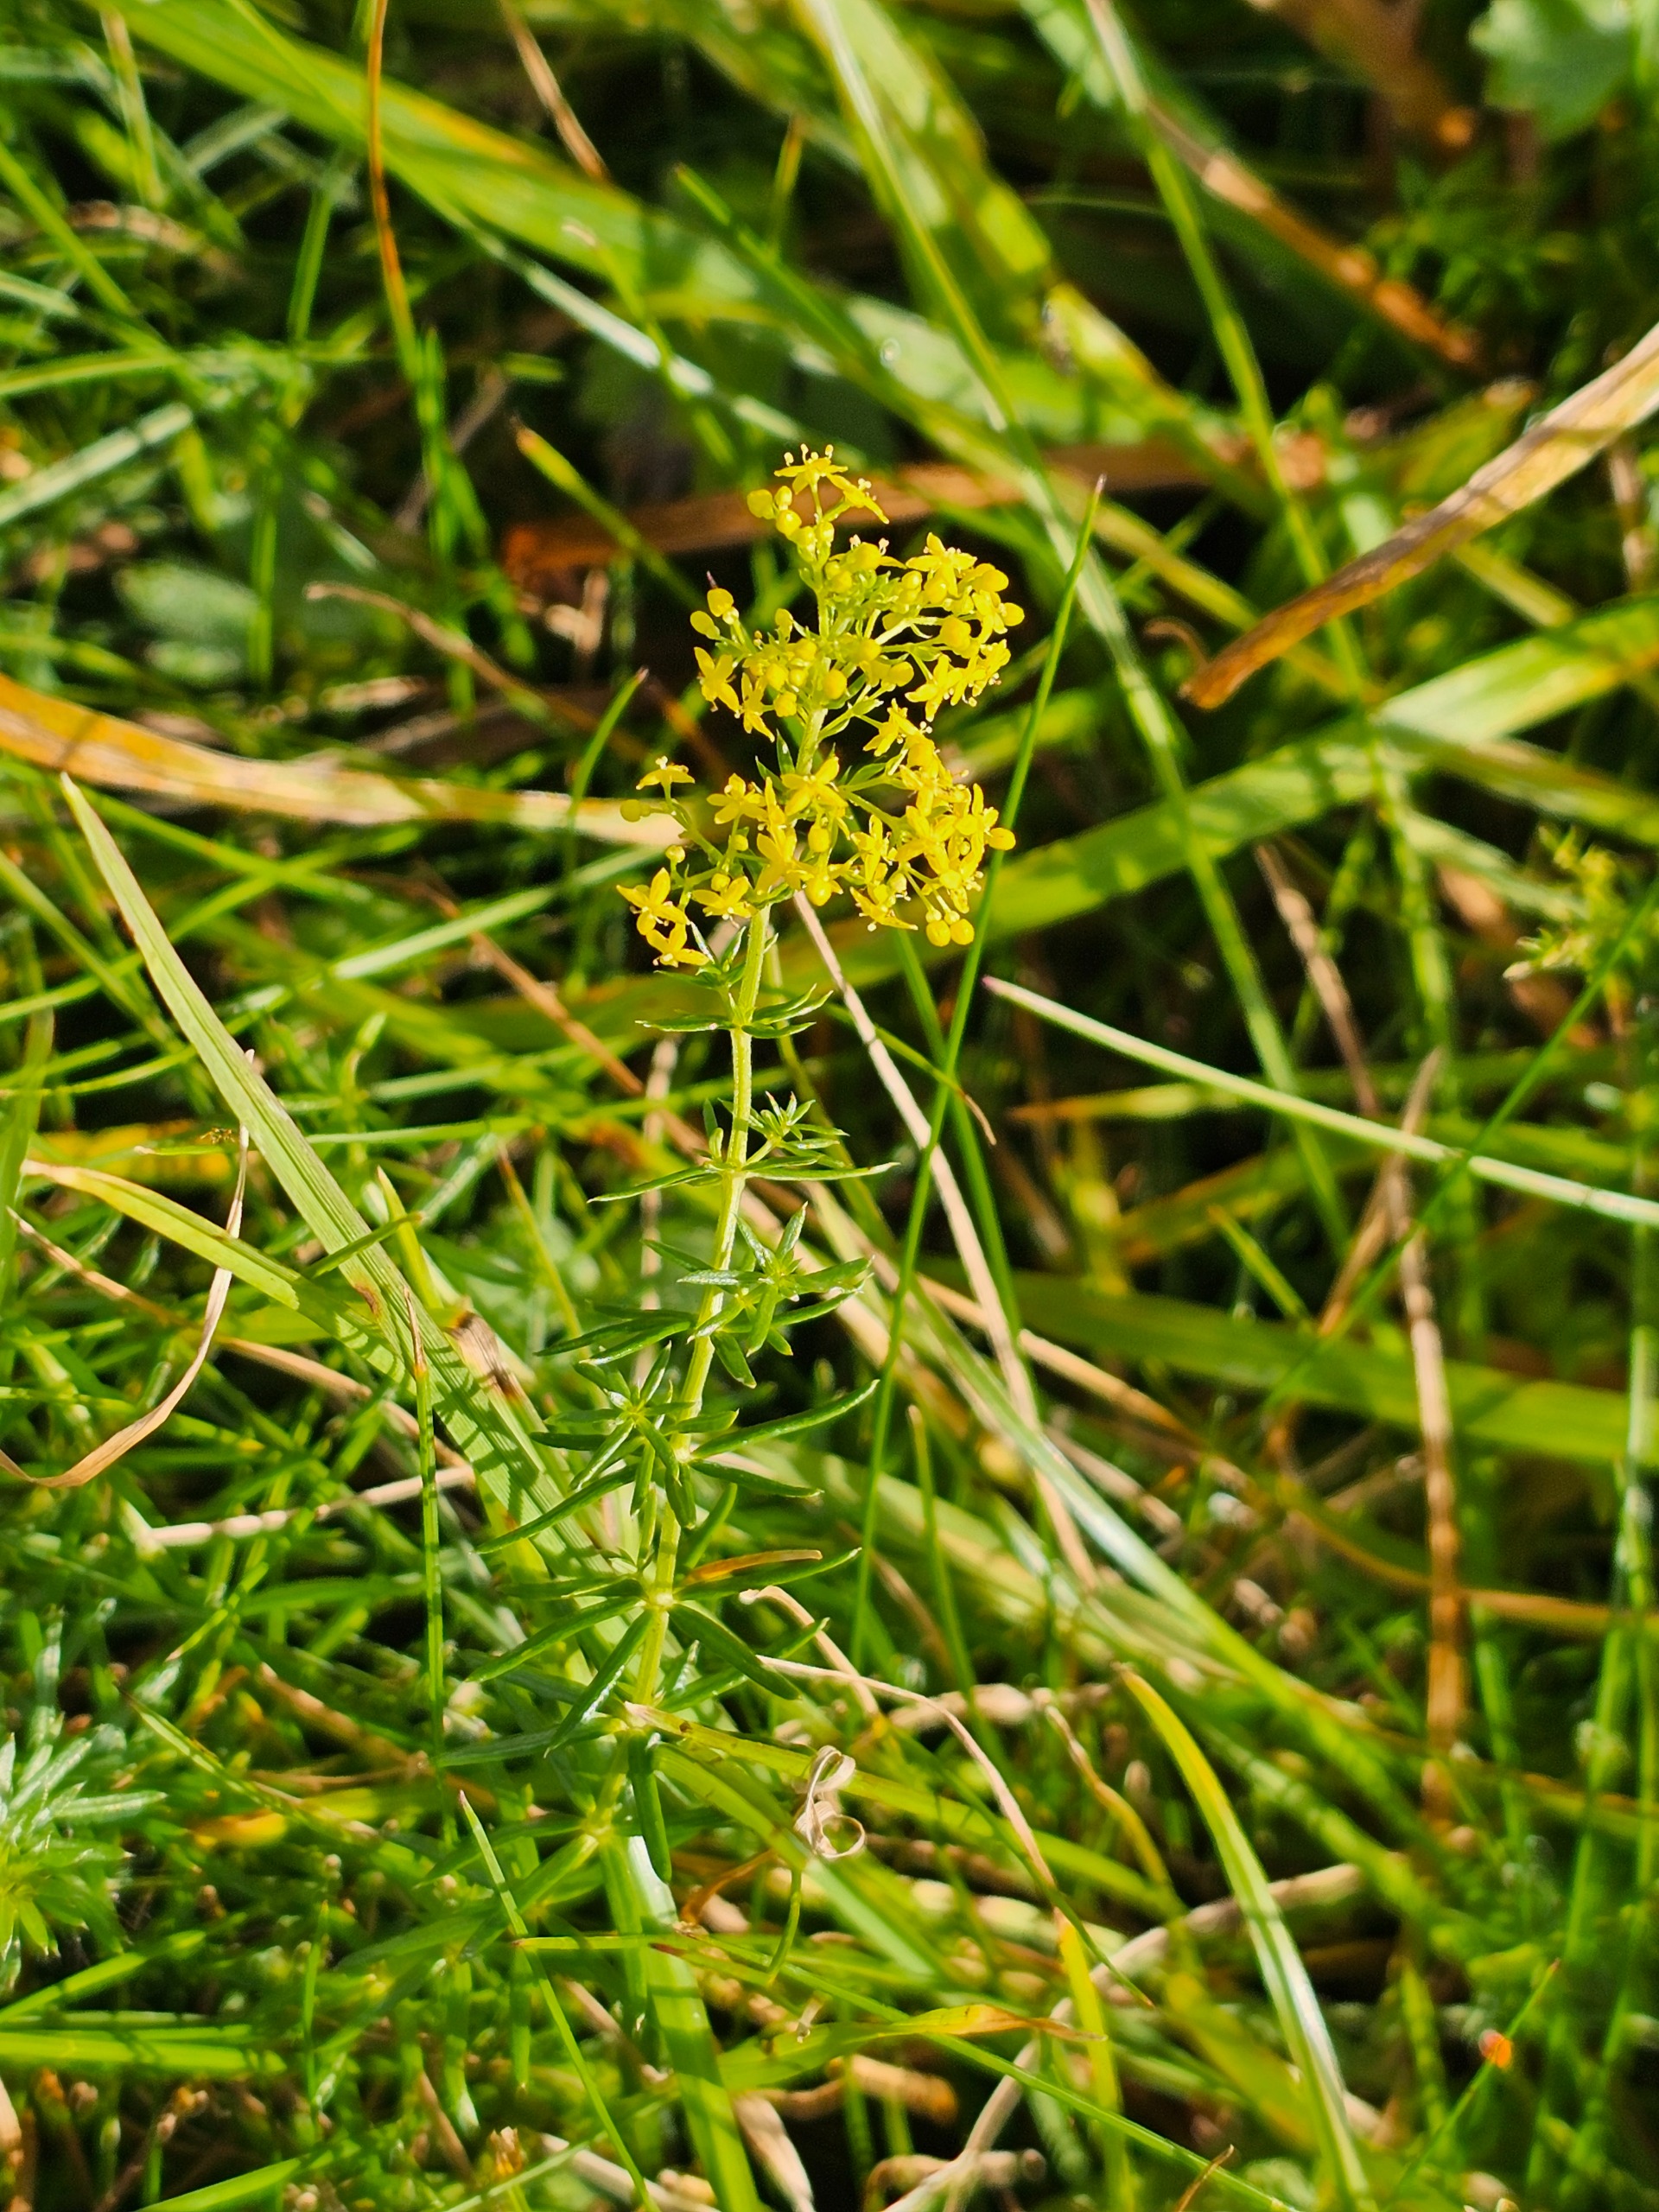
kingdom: Plantae
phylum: Tracheophyta
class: Magnoliopsida
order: Gentianales
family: Rubiaceae
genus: Galium
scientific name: Galium verum
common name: Gul snerre
